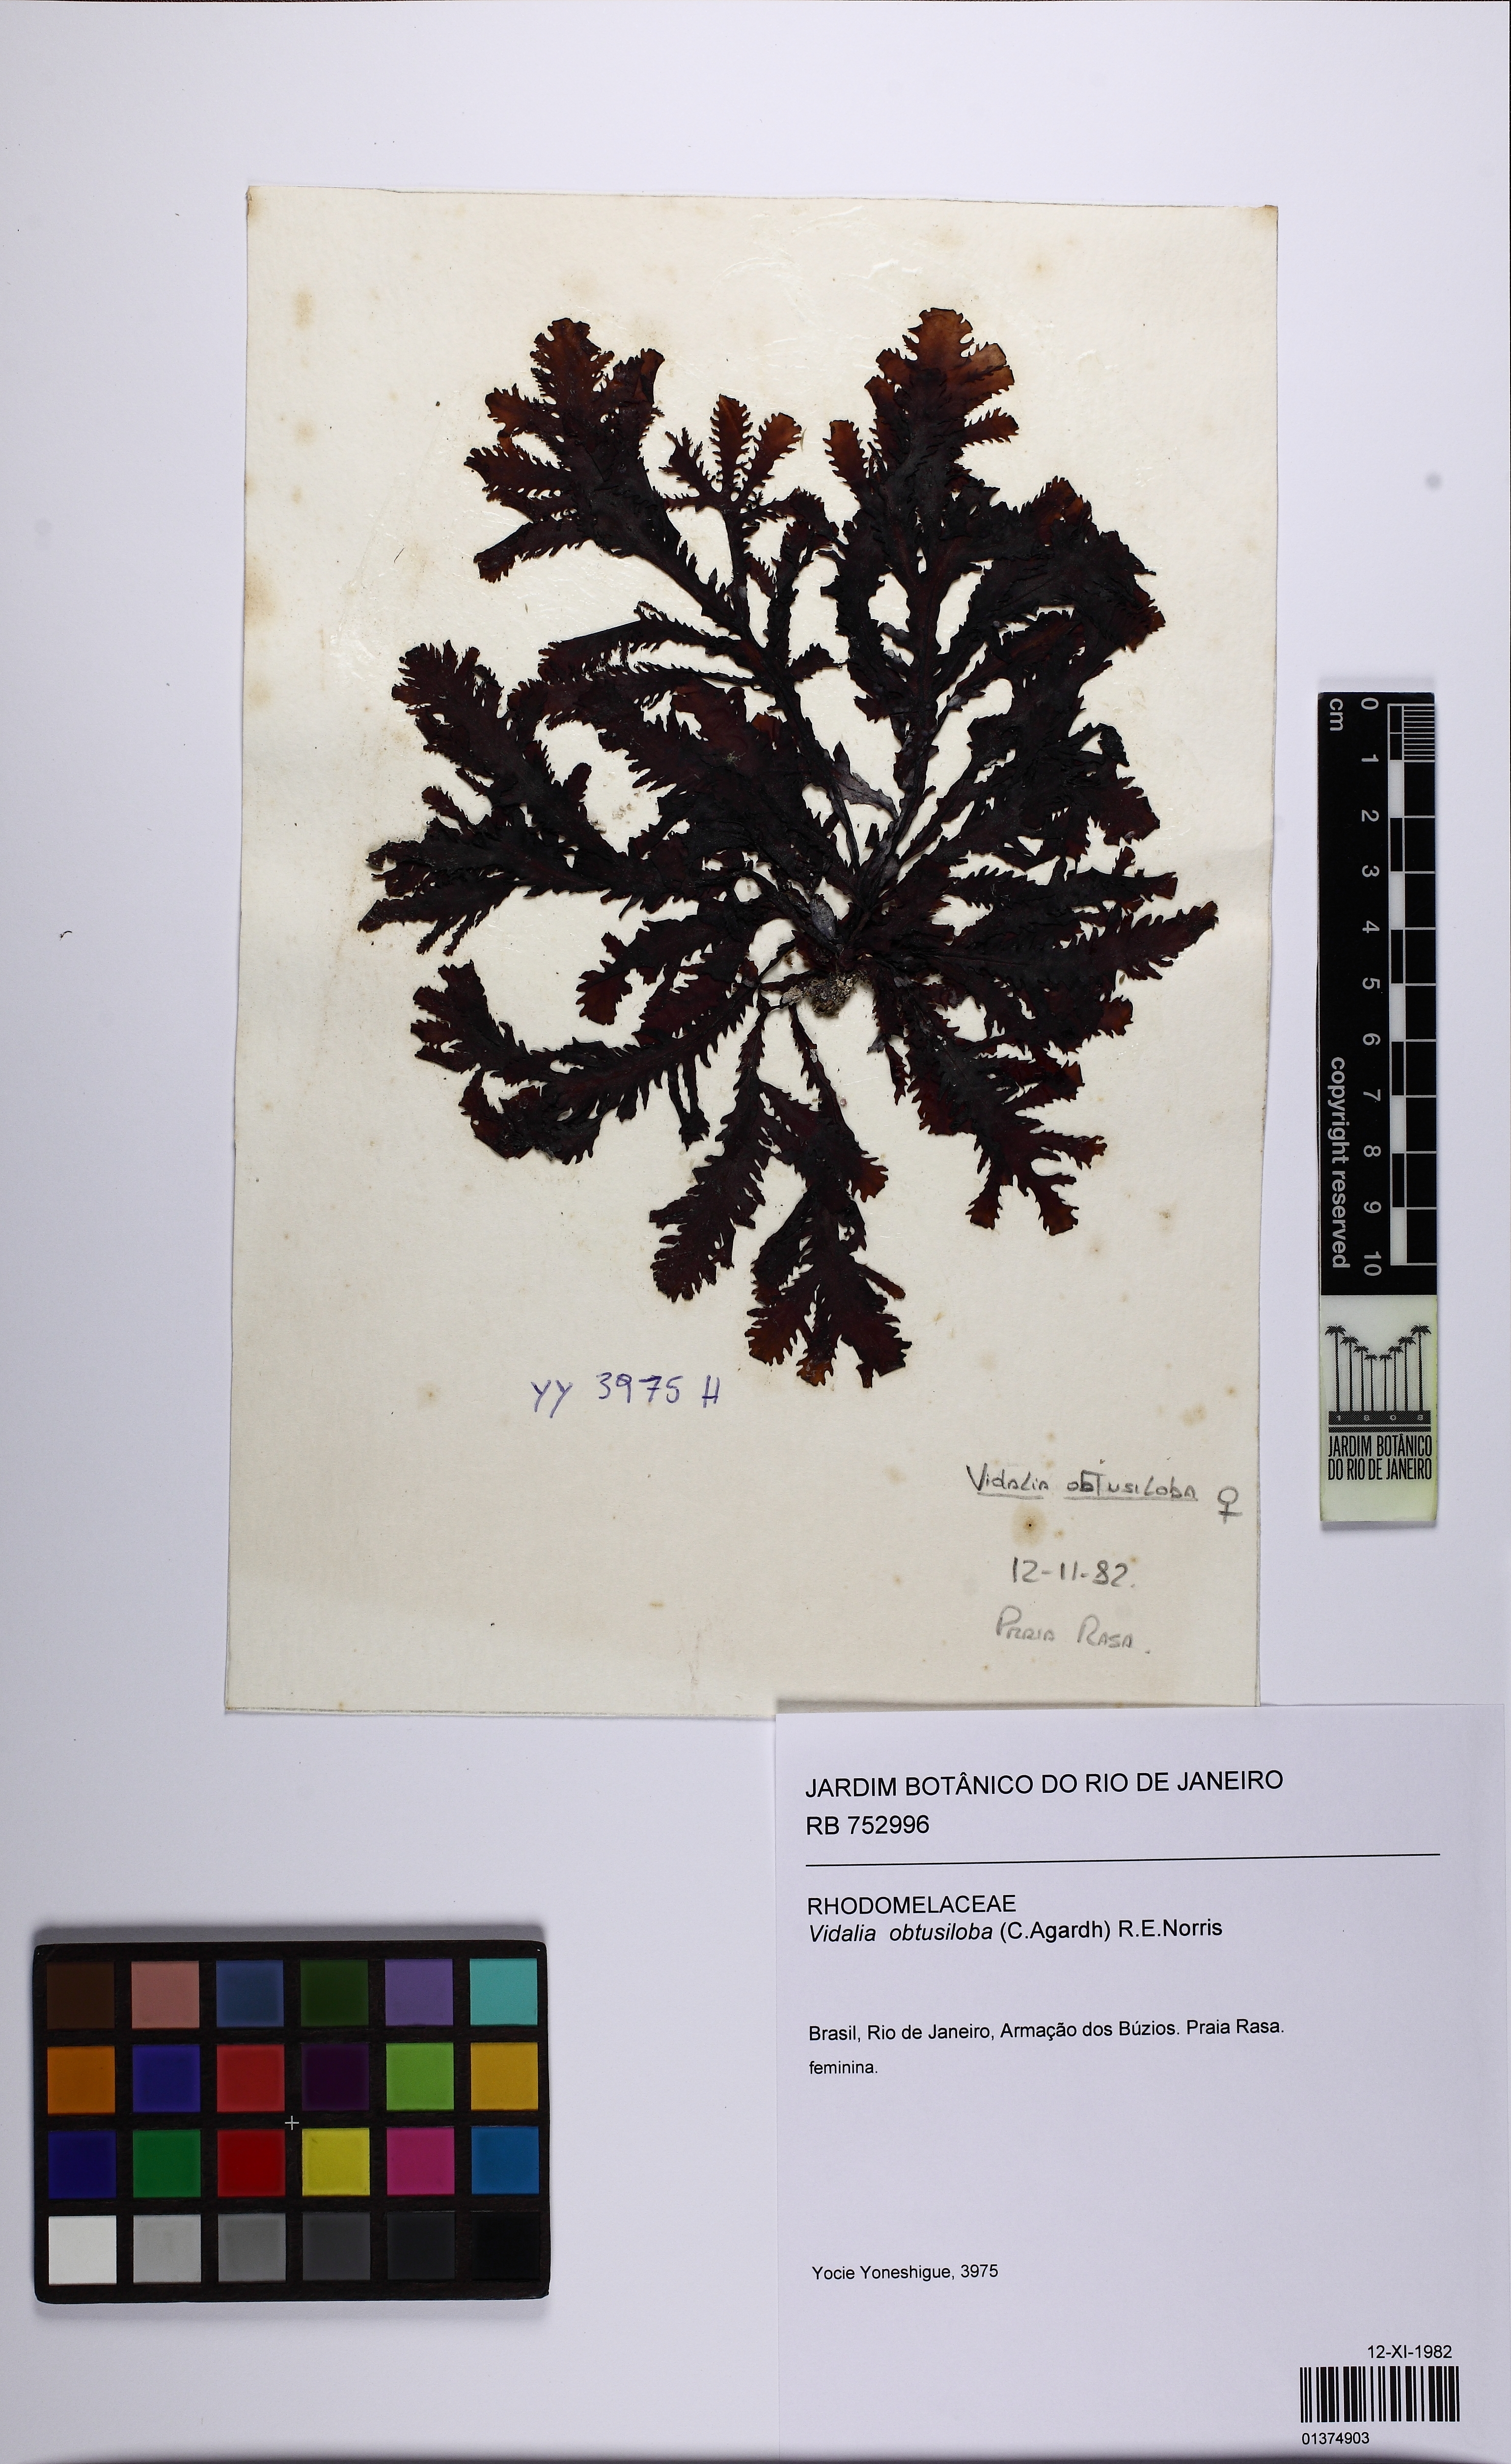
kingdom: Plantae
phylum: Rhodophyta
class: Florideophyceae
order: Ceramiales
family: Rhodomelaceae
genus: Osmundaria
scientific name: Osmundaria obtusiloba
